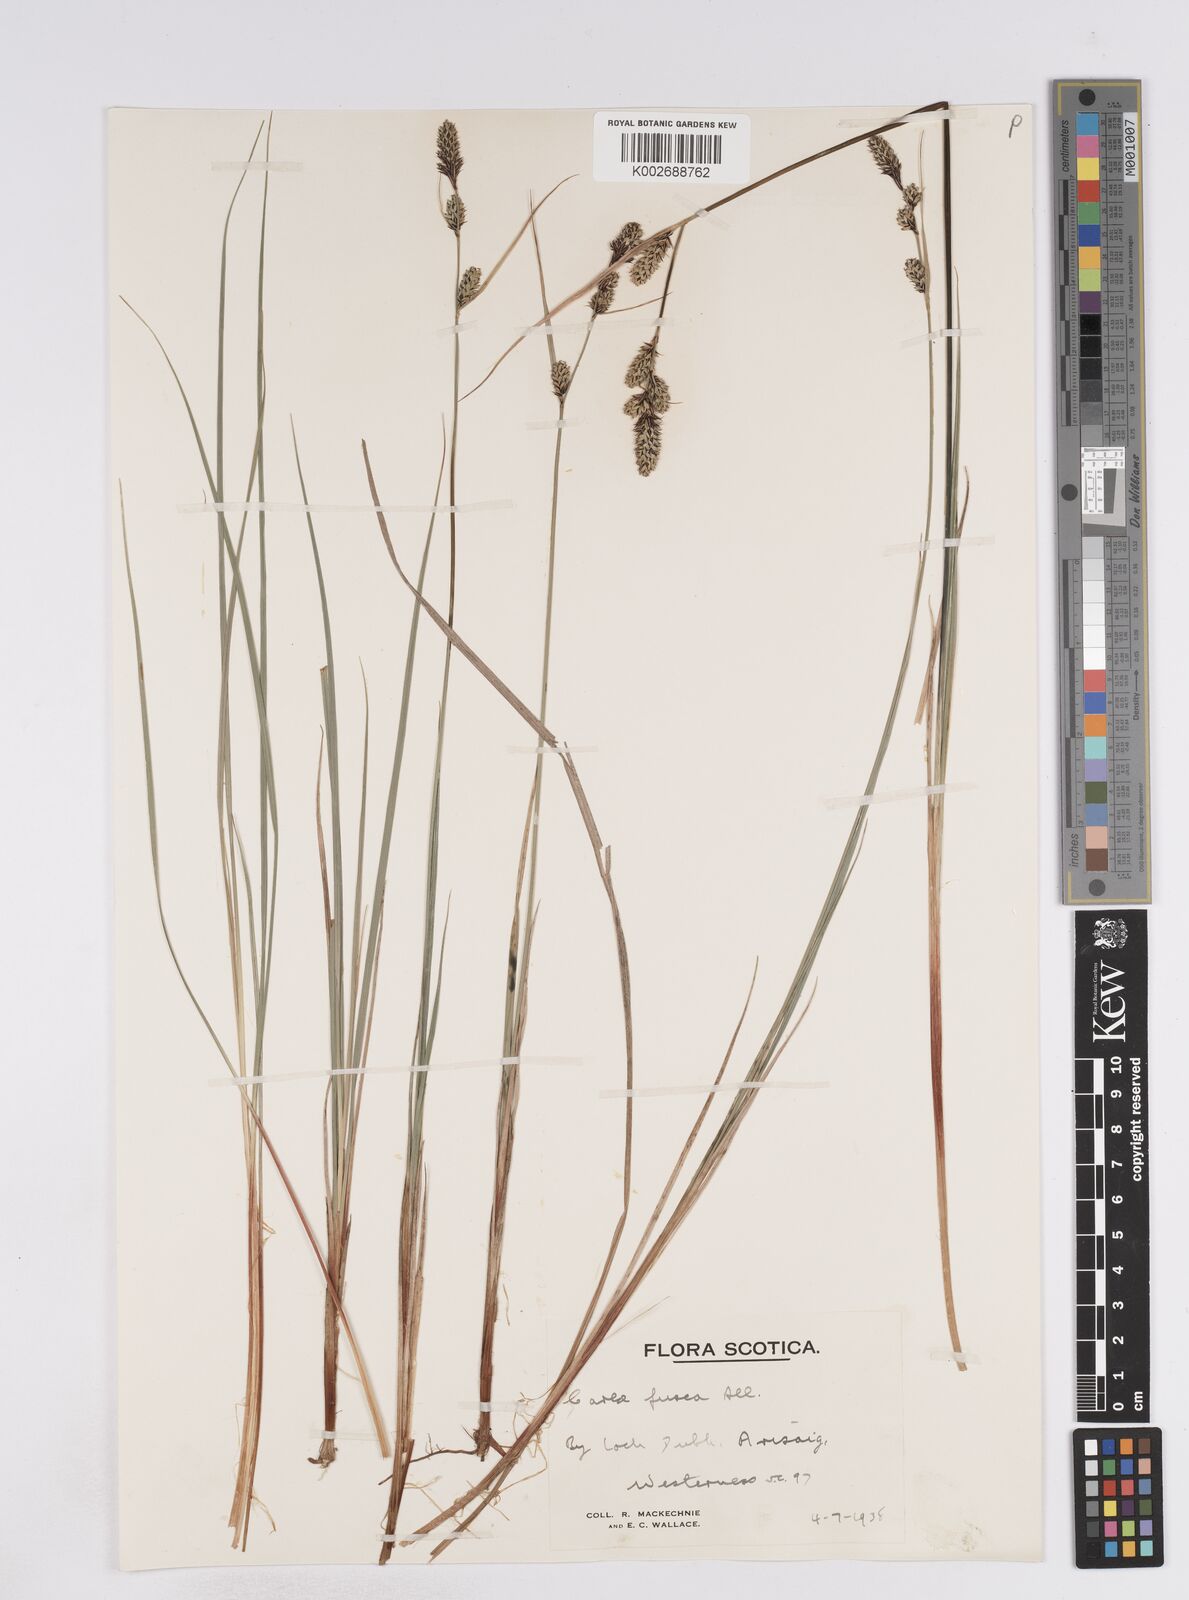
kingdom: Plantae
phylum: Tracheophyta
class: Liliopsida
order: Poales
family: Cyperaceae
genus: Carex
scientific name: Carex buxbaumii
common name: Club sedge
